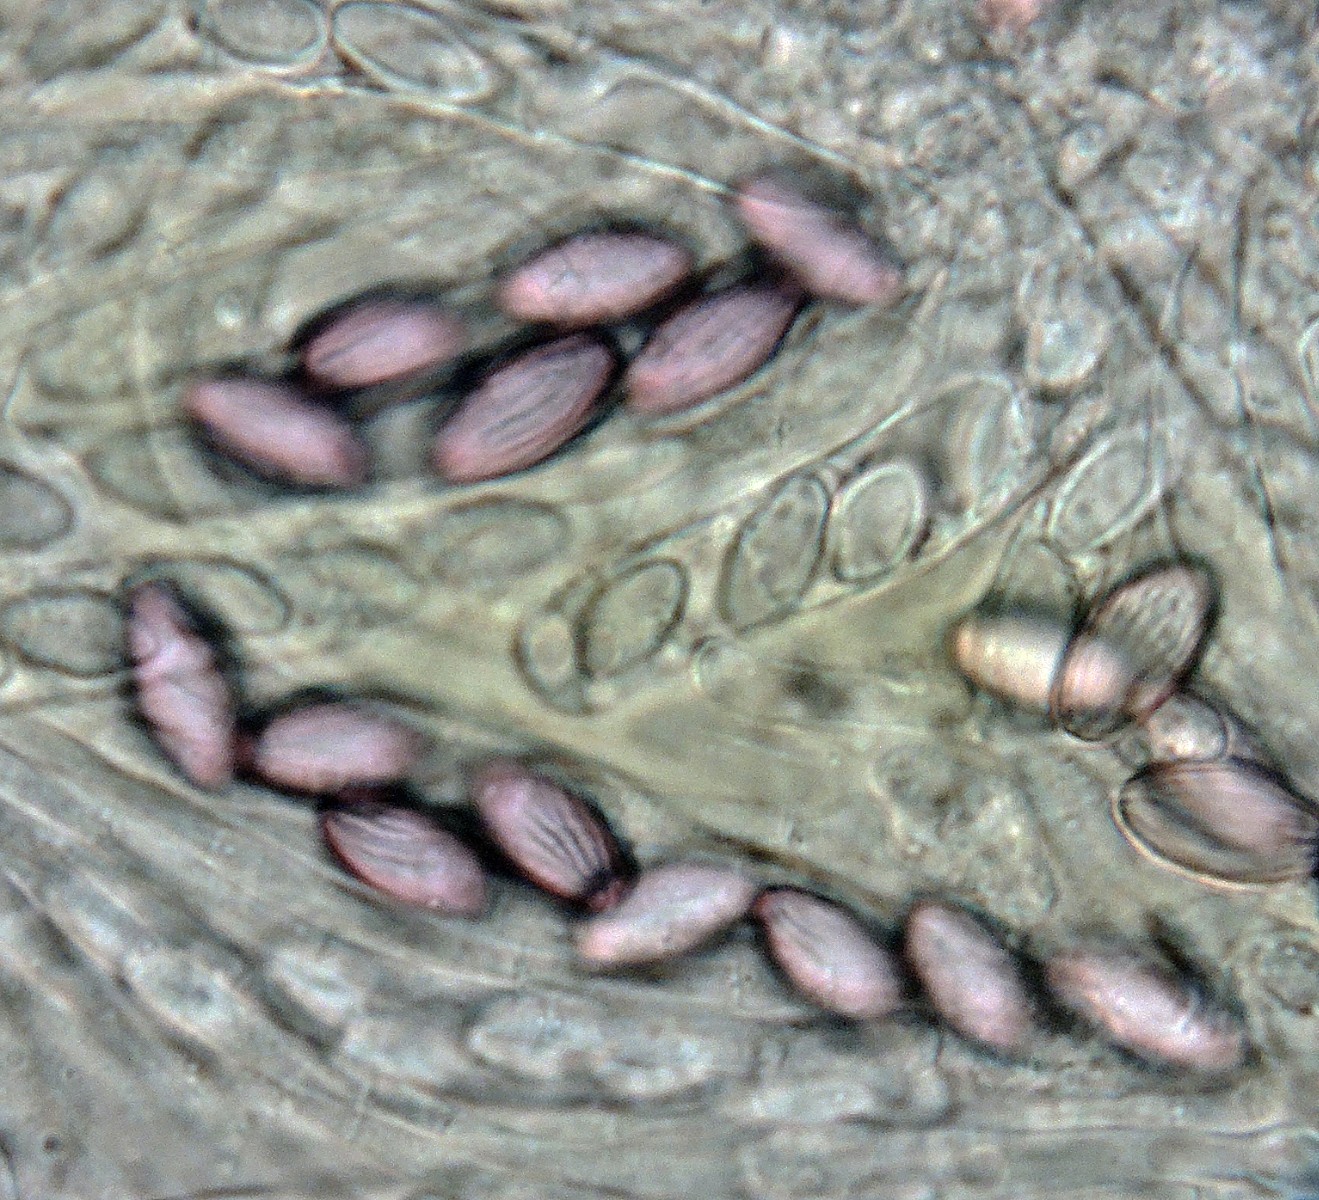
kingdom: Fungi
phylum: Ascomycota
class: Pezizomycetes
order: Pezizales
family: Ascobolaceae
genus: Ascobolus
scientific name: Ascobolus crenulatus
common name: gullig prikbæger
